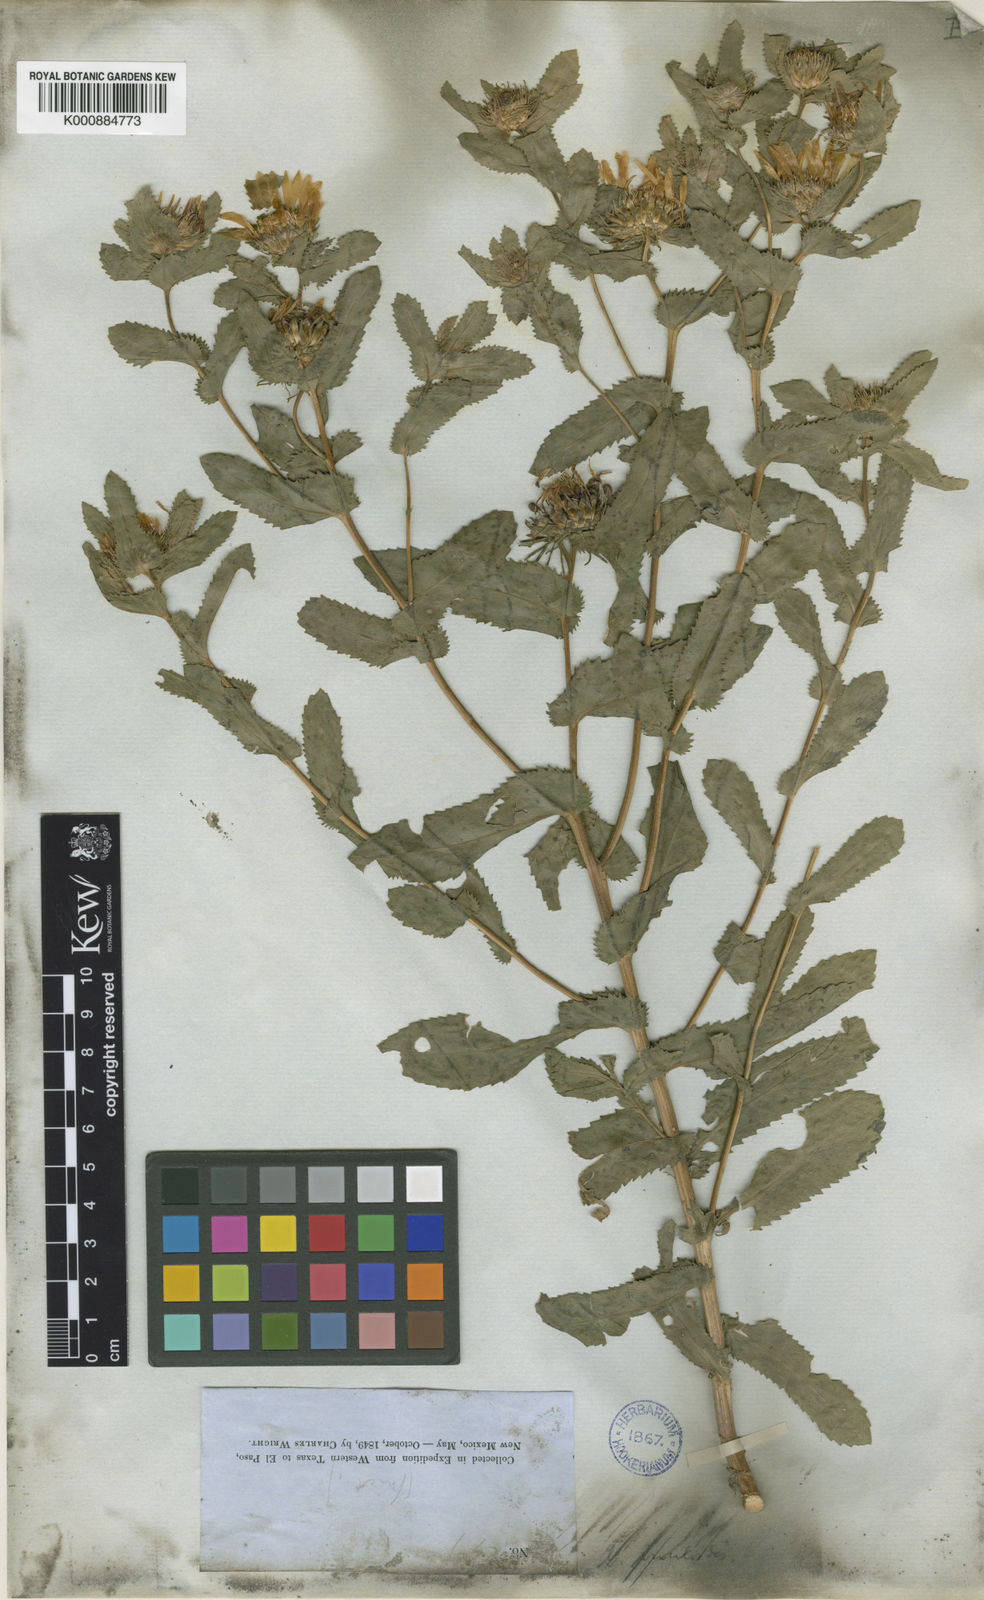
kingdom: Plantae
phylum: Tracheophyta
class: Magnoliopsida
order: Asterales
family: Asteraceae
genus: Grindelia
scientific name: Grindelia adenodonta
